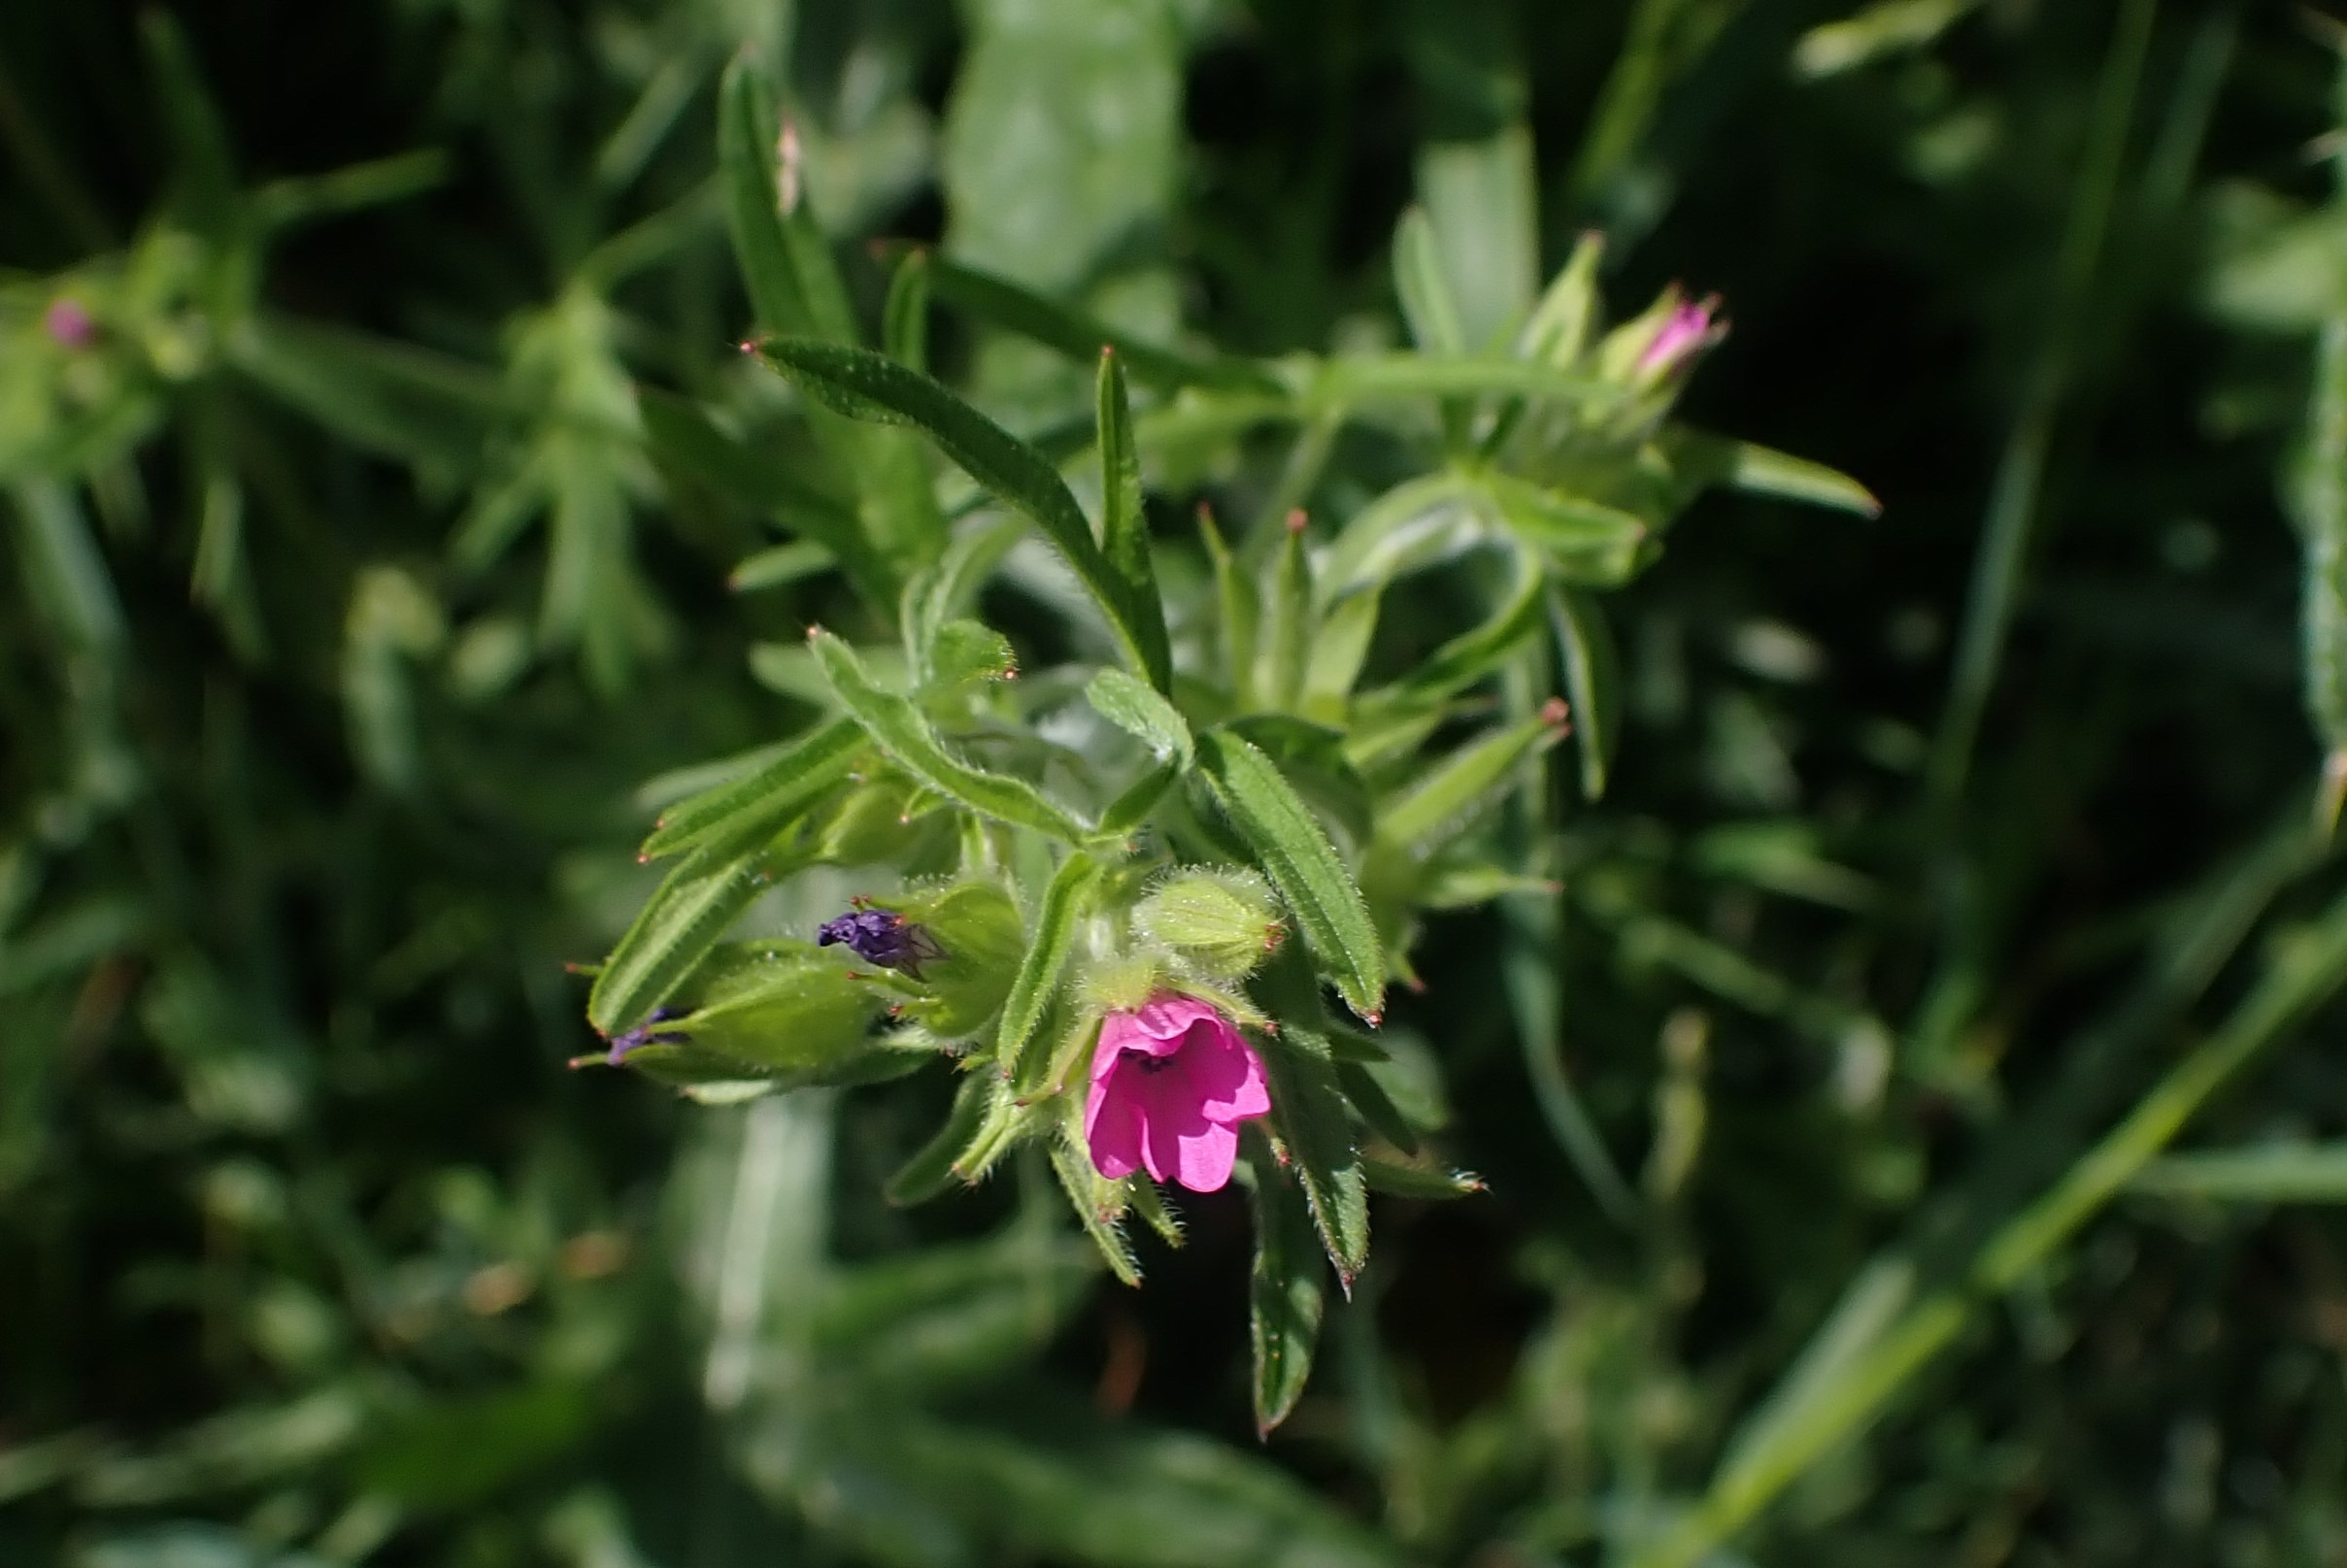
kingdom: Plantae
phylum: Tracheophyta
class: Magnoliopsida
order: Geraniales
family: Geraniaceae
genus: Geranium
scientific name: Geranium dissectum
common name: Kløftet storkenæb
